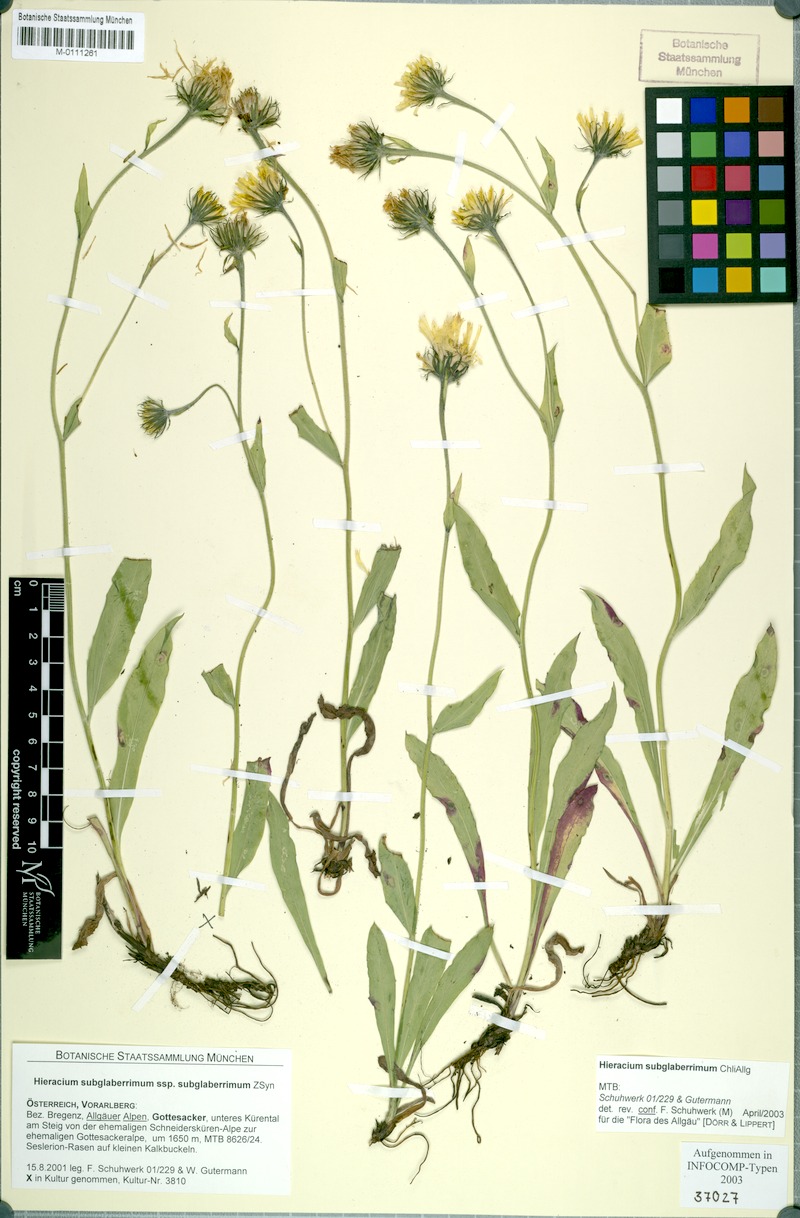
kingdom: Plantae
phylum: Tracheophyta
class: Magnoliopsida
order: Asterales
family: Asteraceae
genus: Hieracium
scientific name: Hieracium subglaberrimum
